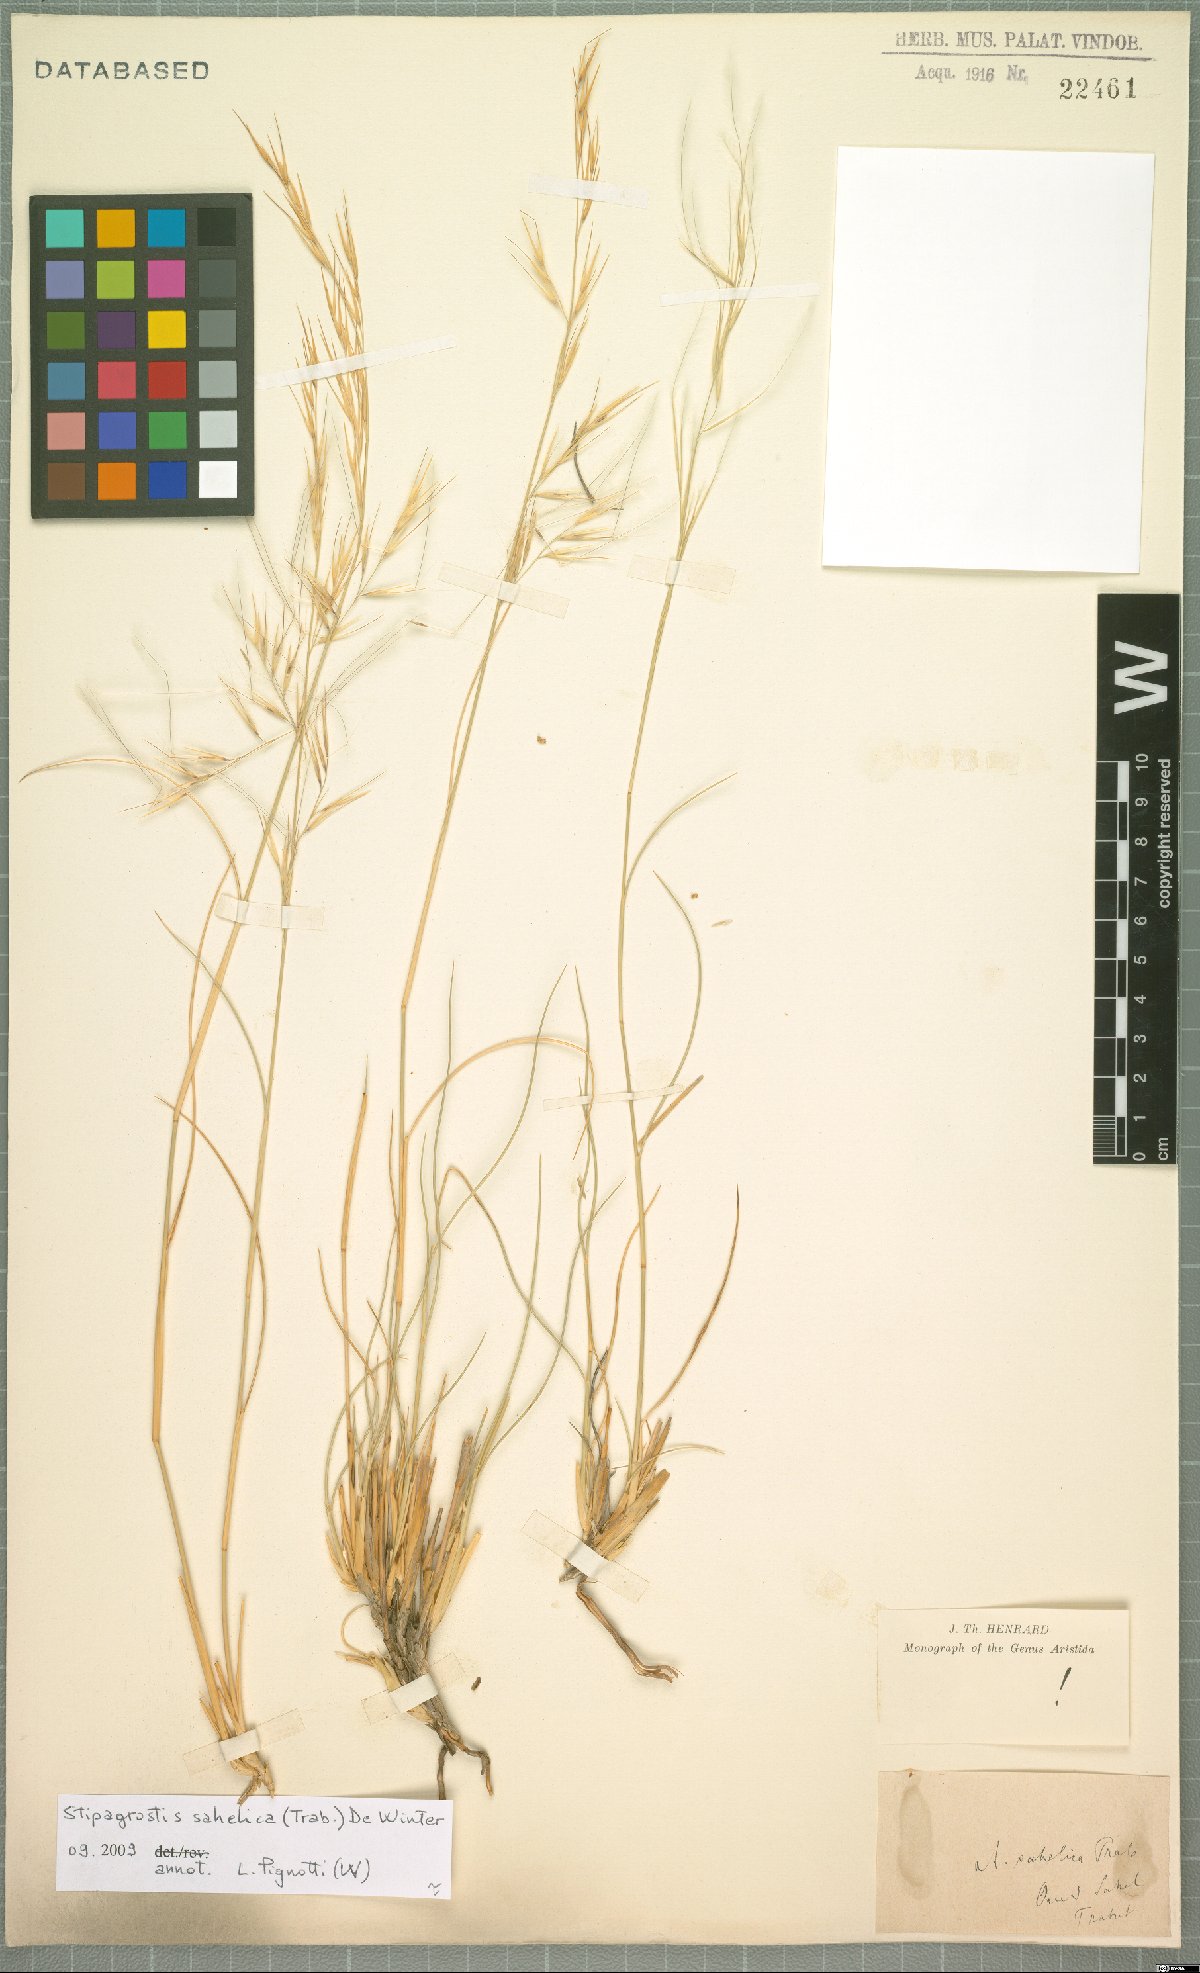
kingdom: Plantae
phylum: Tracheophyta
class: Liliopsida
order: Poales
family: Poaceae
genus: Stipagrostis
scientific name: Stipagrostis sahelica
